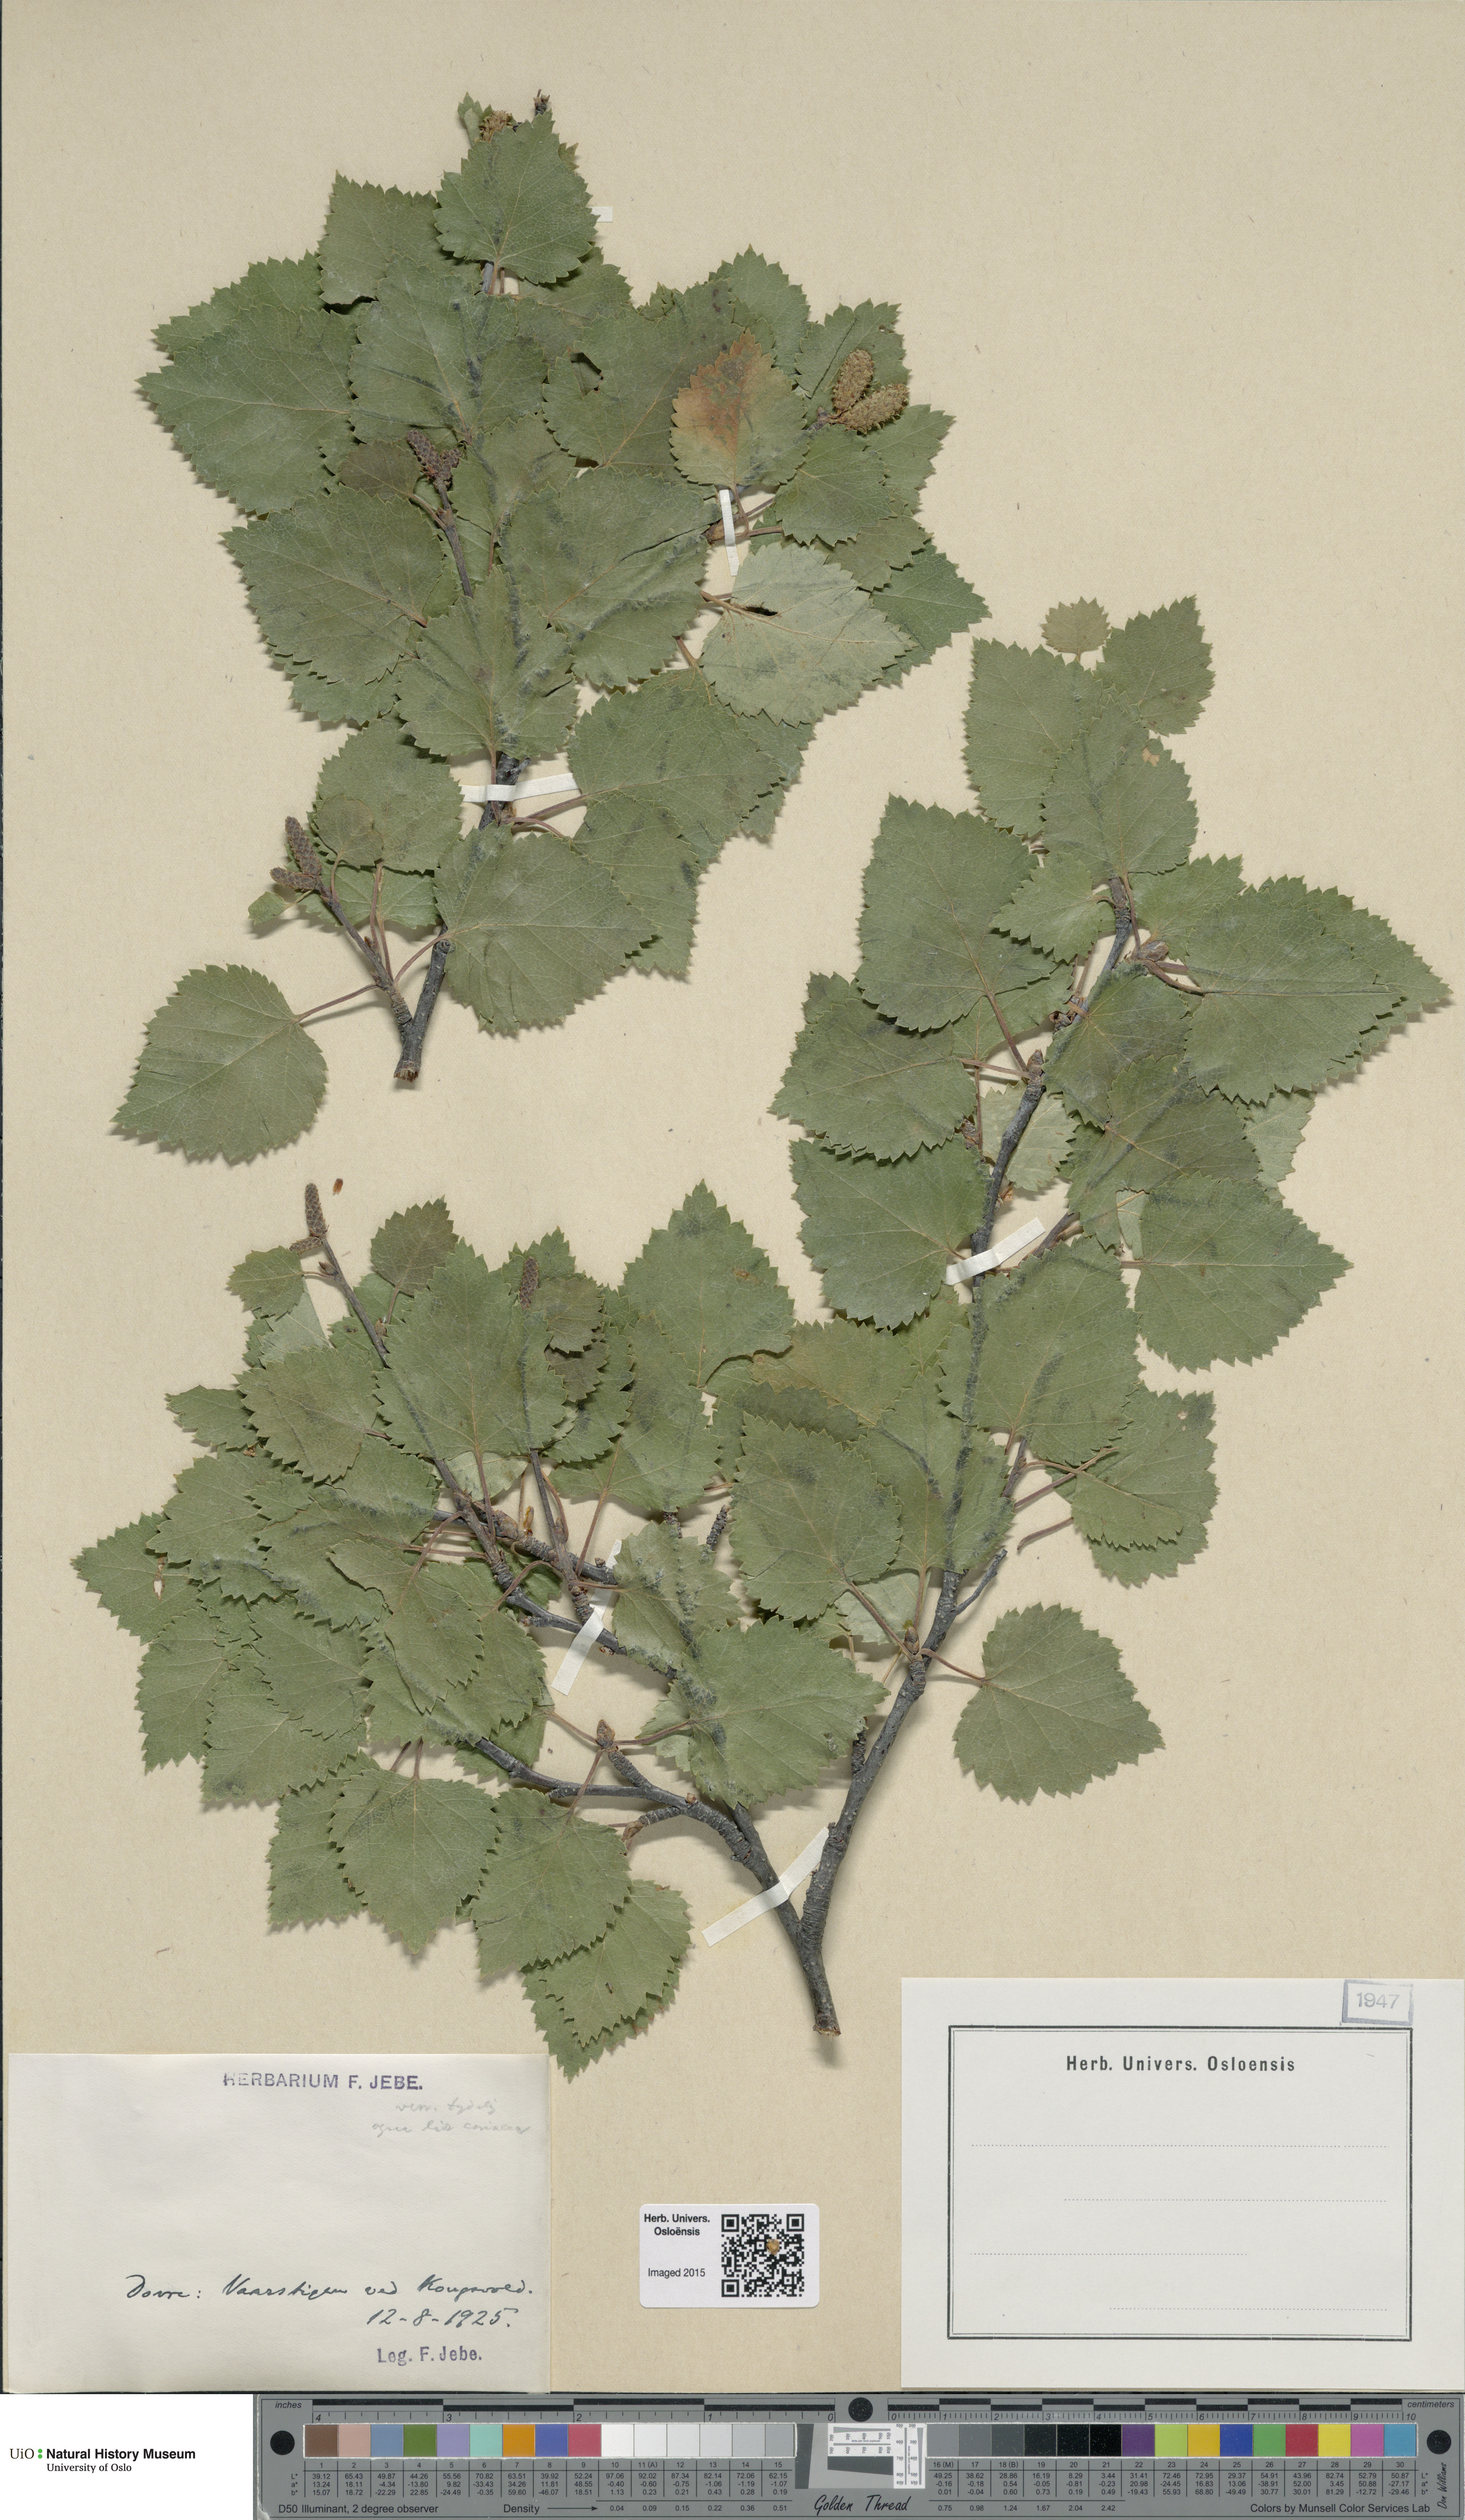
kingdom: Plantae
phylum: Tracheophyta
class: Magnoliopsida
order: Fagales
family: Betulaceae
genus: Betula
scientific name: Betula
